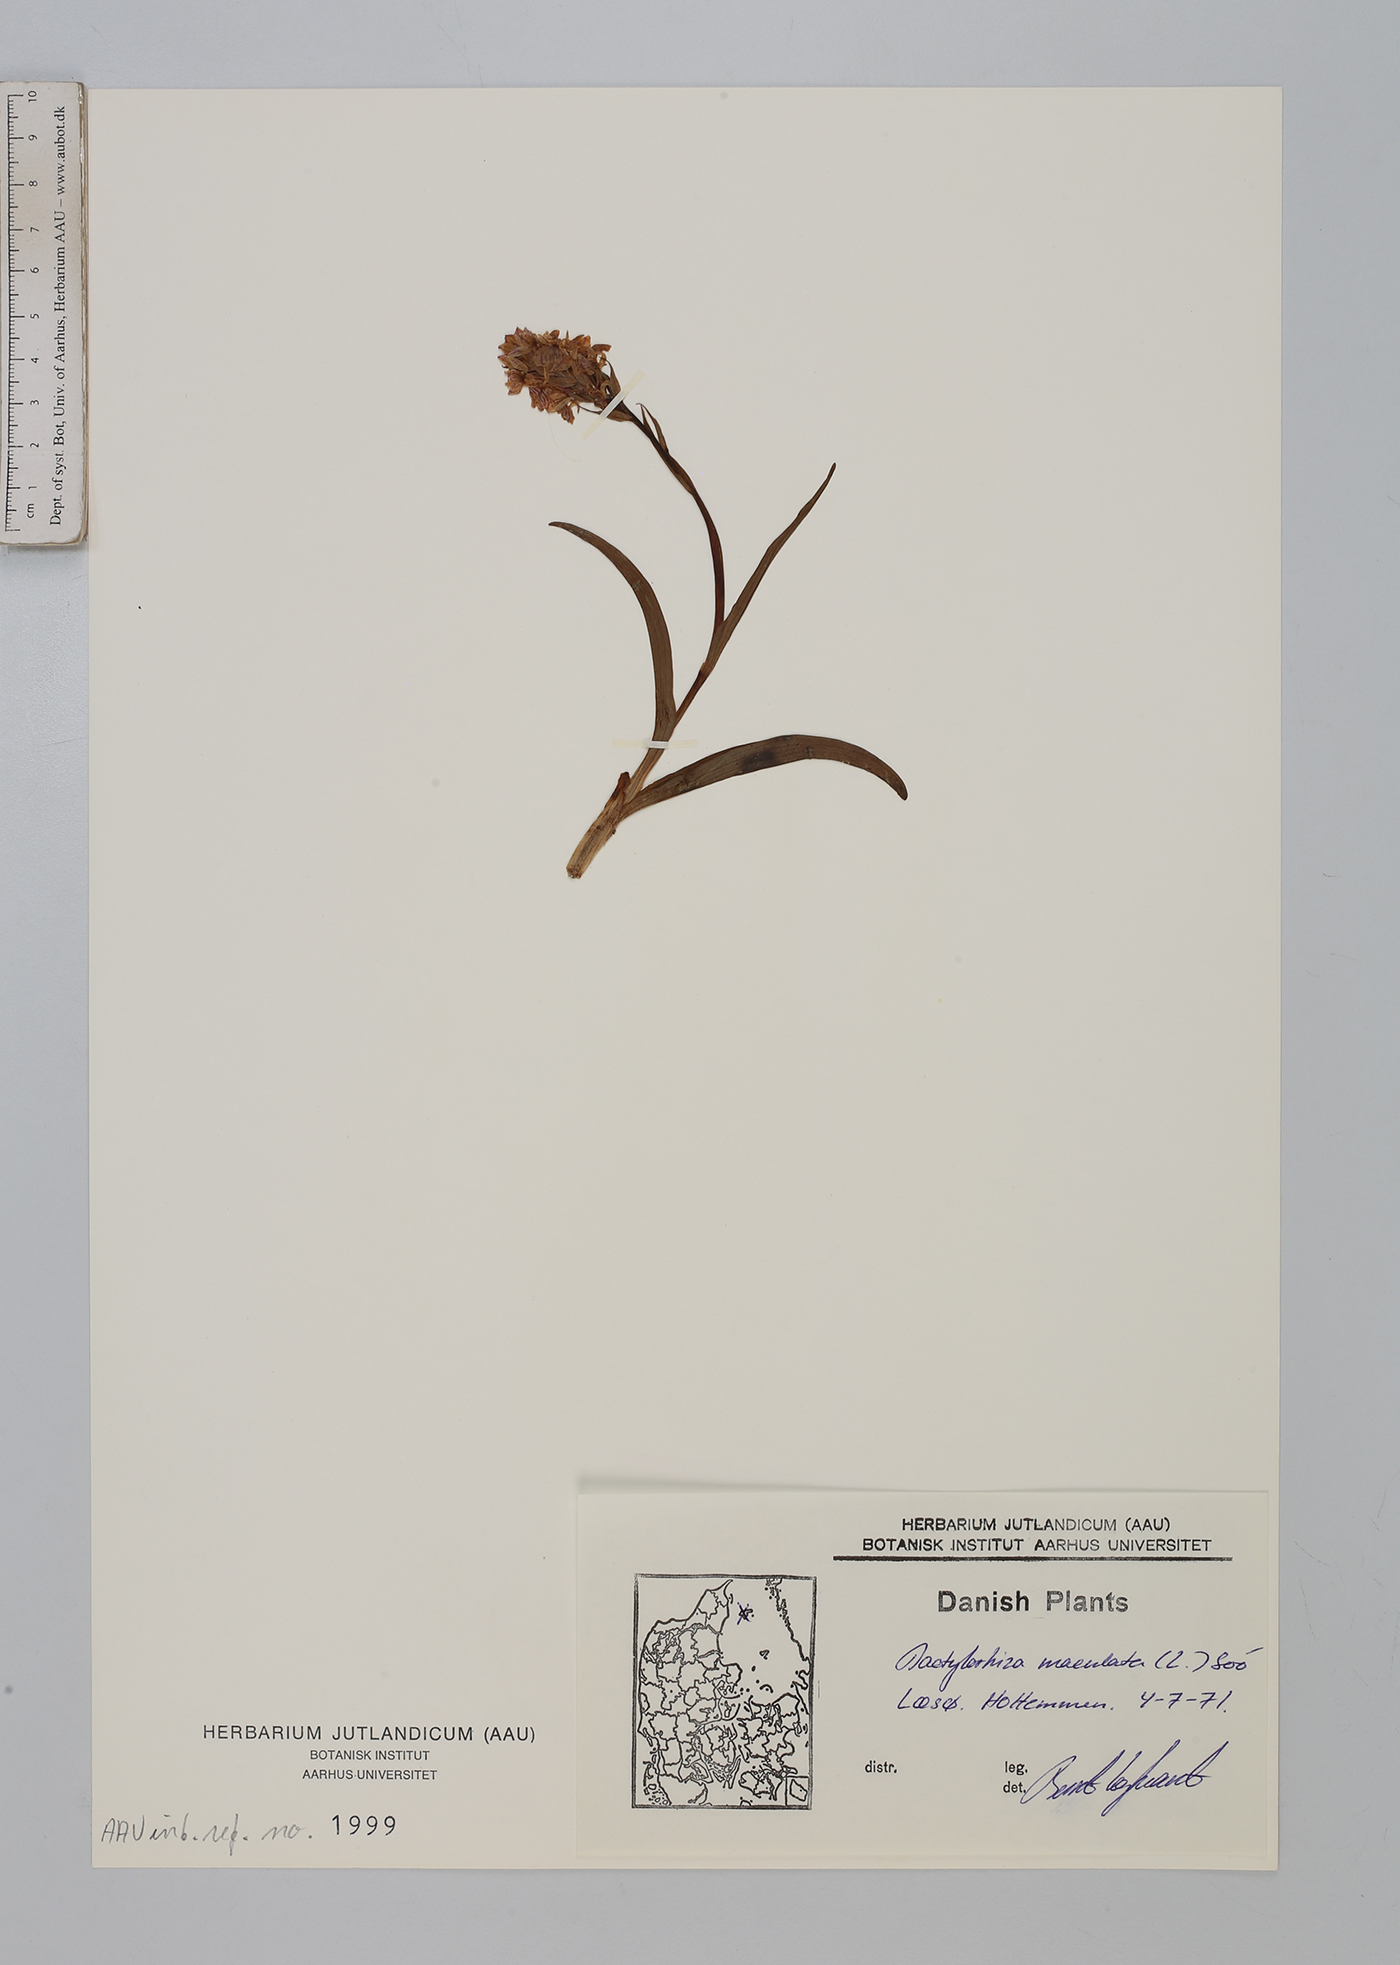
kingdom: Plantae
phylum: Tracheophyta
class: Liliopsida
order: Asparagales
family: Orchidaceae
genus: Dactylorhiza
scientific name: Dactylorhiza maculata
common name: Heath spotted-orchid
